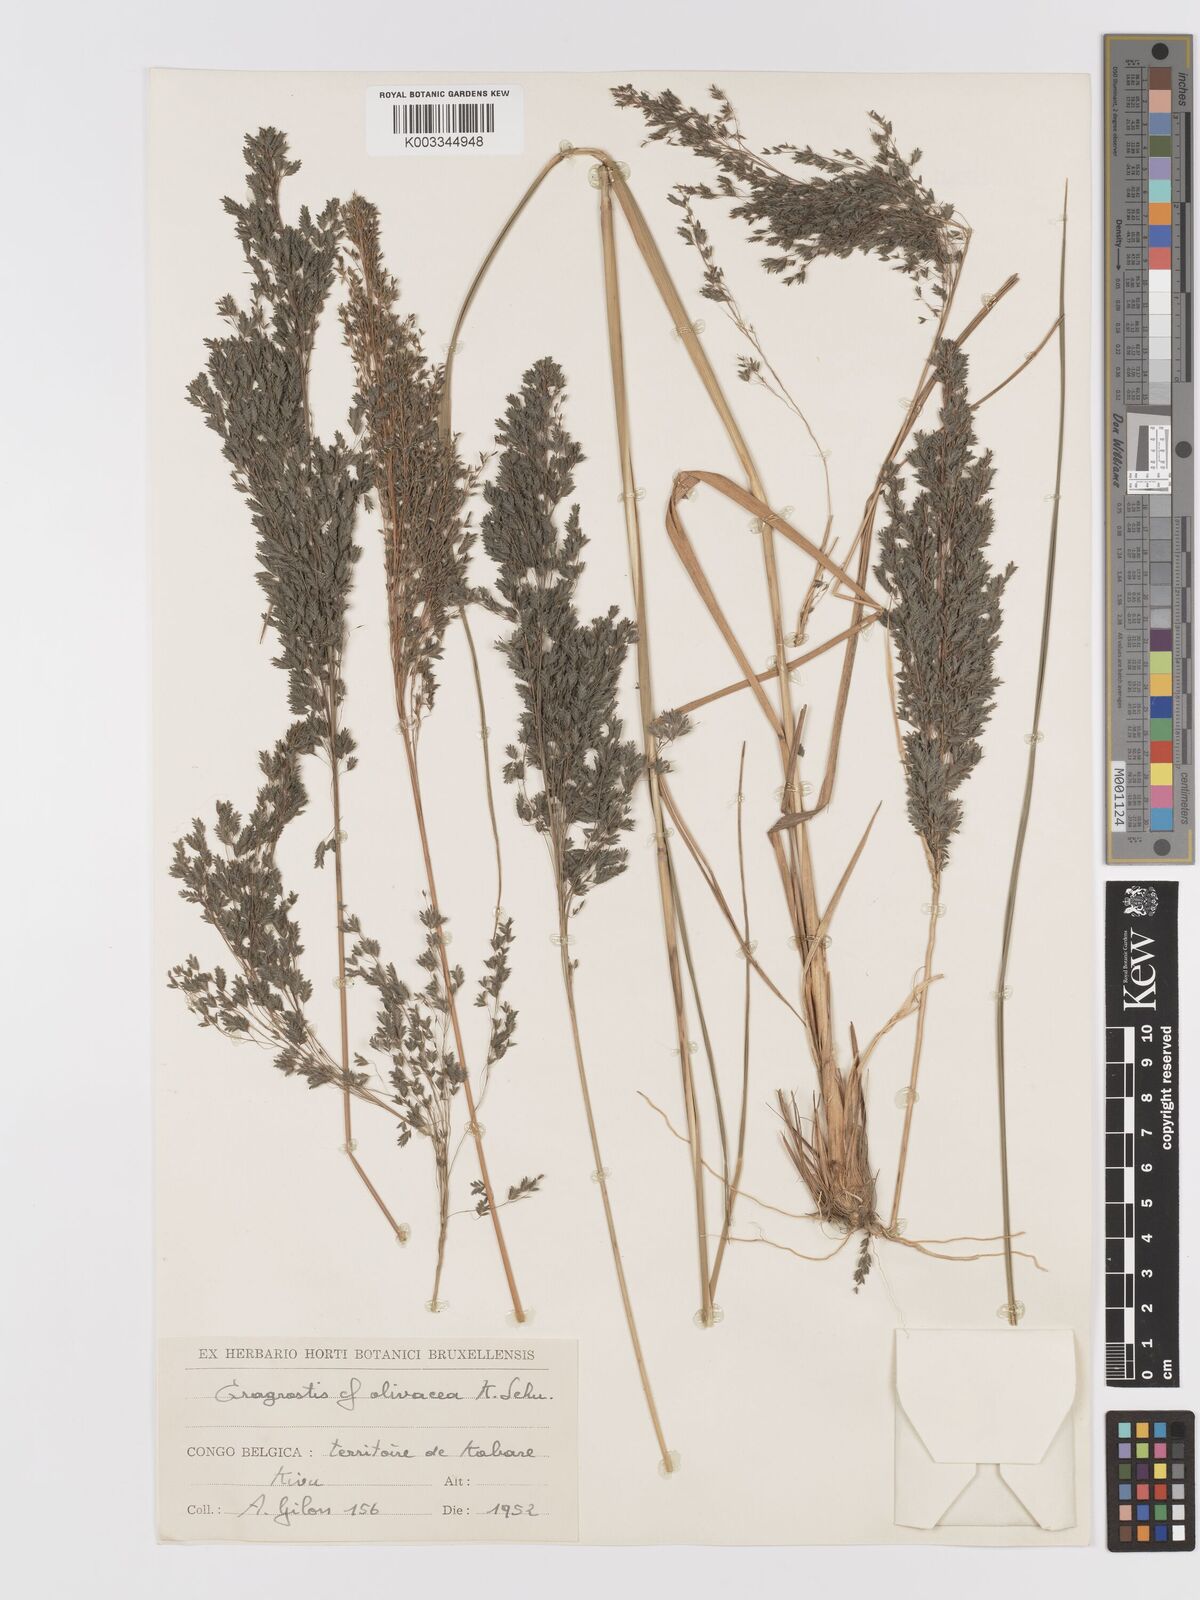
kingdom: Plantae
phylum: Tracheophyta
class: Liliopsida
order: Poales
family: Poaceae
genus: Eragrostis
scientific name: Eragrostis mollior
